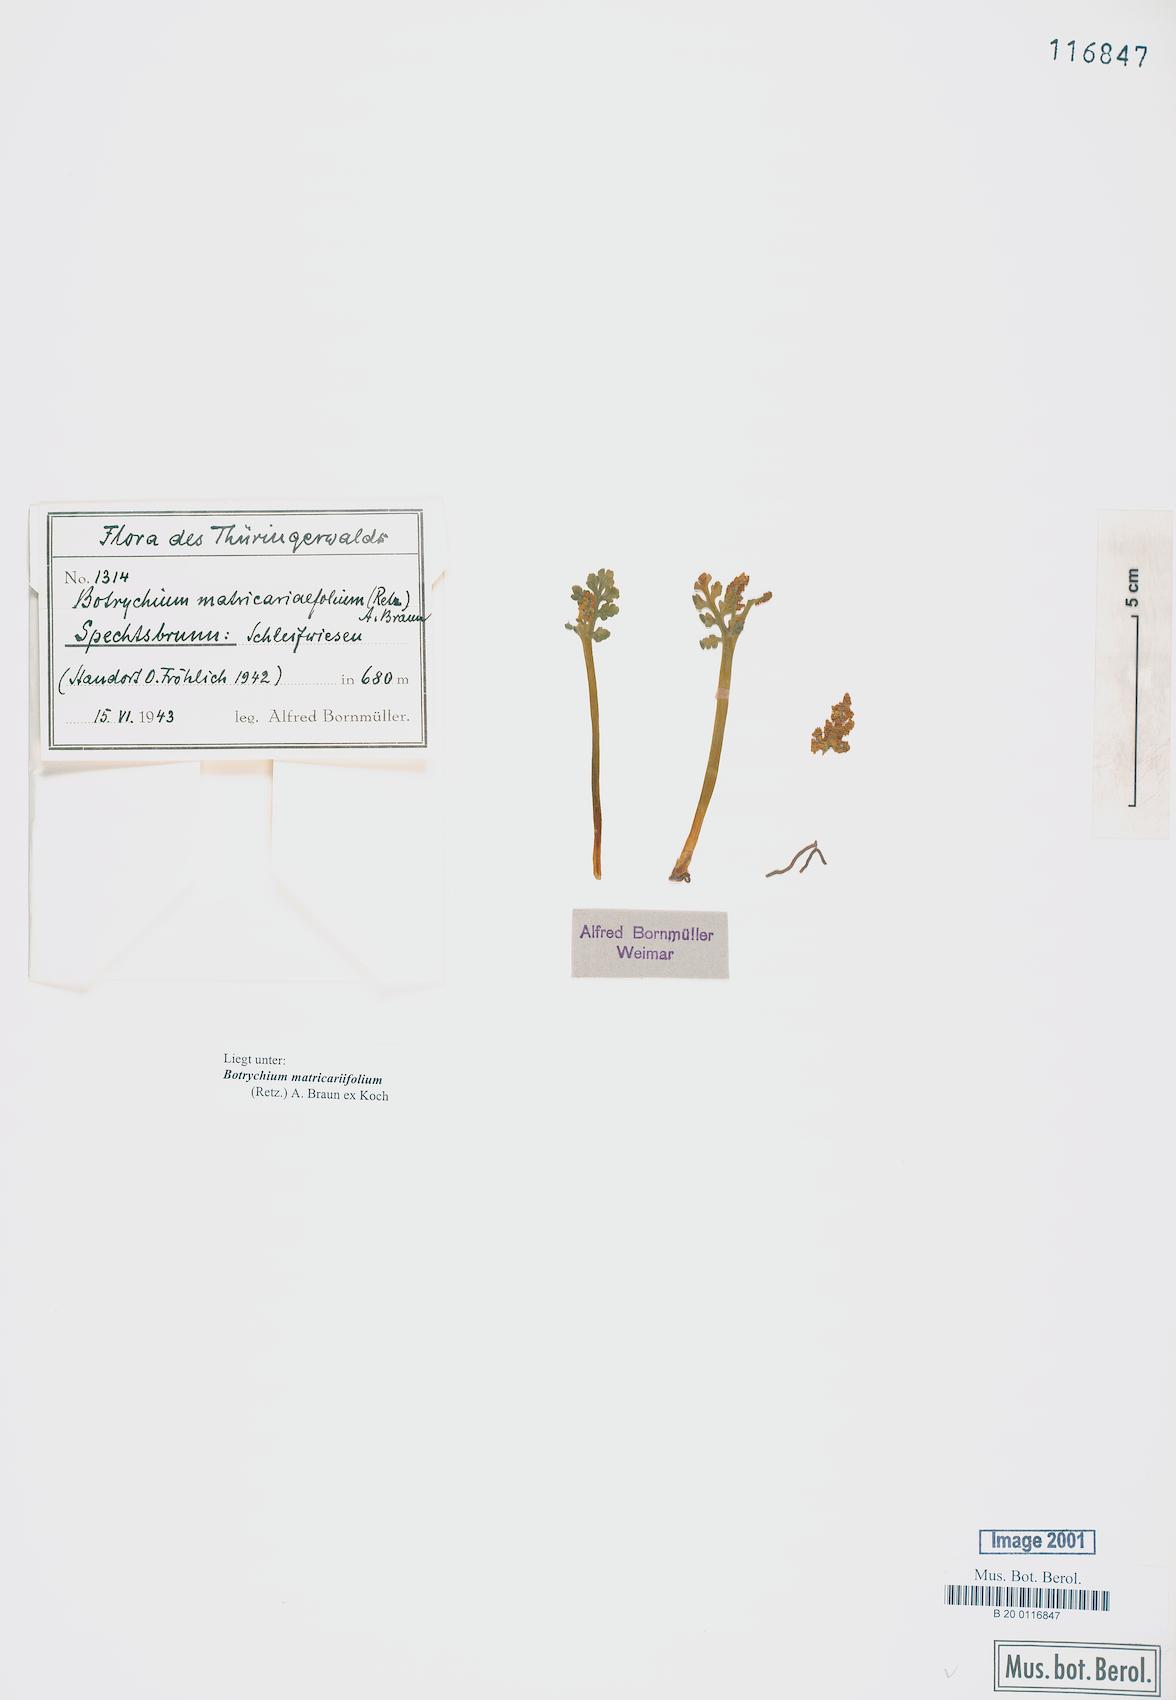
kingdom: Plantae
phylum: Tracheophyta
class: Polypodiopsida
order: Ophioglossales
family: Ophioglossaceae
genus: Botrychium
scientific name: Botrychium matricariifolium
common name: Branched moonwort
